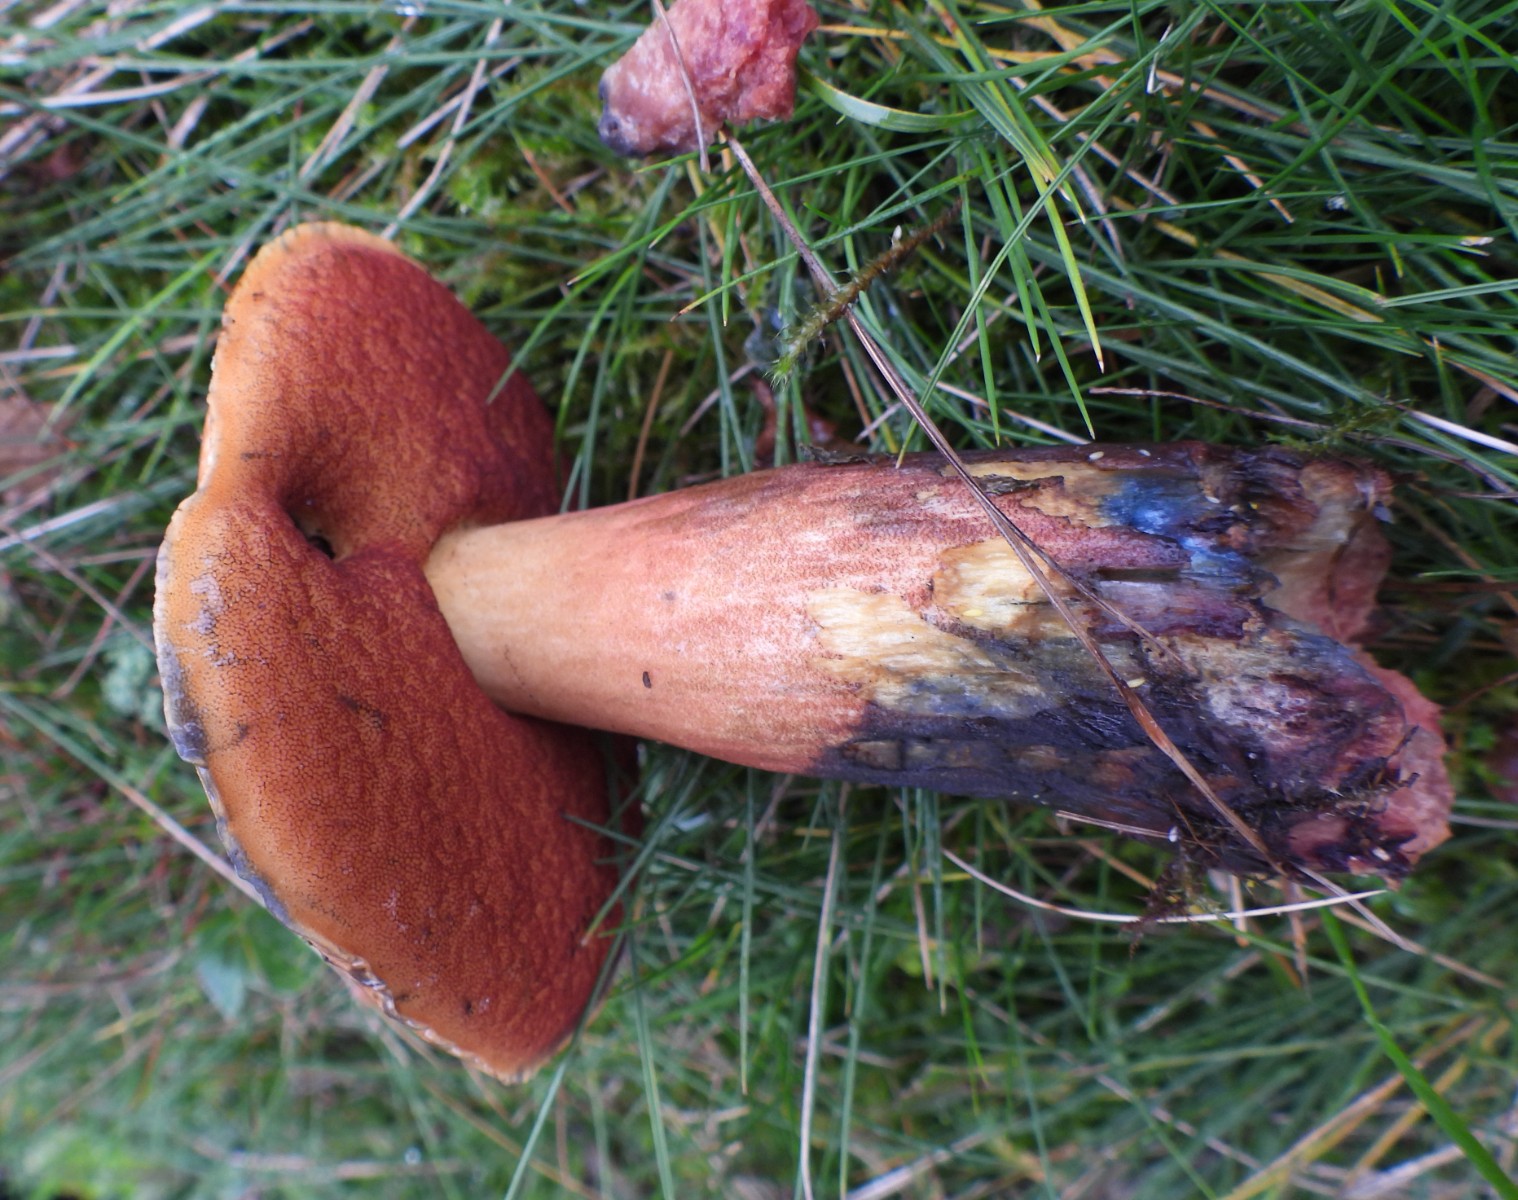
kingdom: Fungi
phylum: Basidiomycota
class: Agaricomycetes
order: Boletales
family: Boletaceae
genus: Neoboletus
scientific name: Neoboletus erythropus
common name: punktstokket indigorørhat
